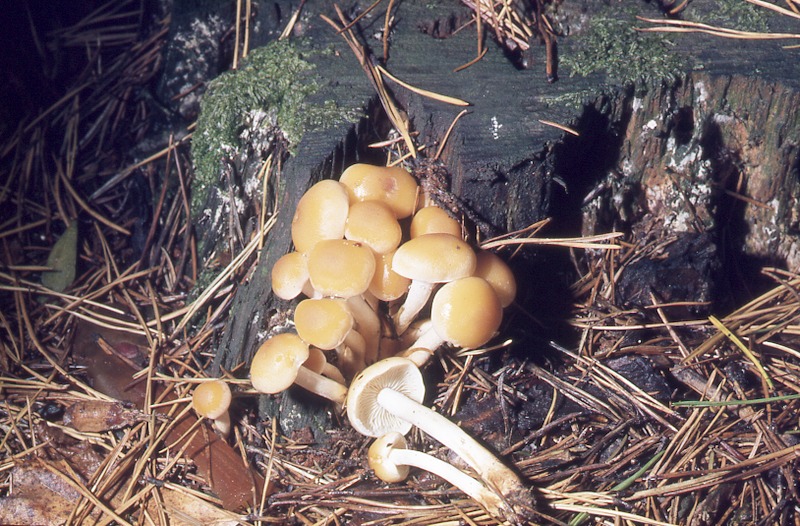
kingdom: Plantae
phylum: Tracheophyta
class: Pinopsida
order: Pinales
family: Pinaceae
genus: Pinus
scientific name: Pinus sylvestris
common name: Scots pine
